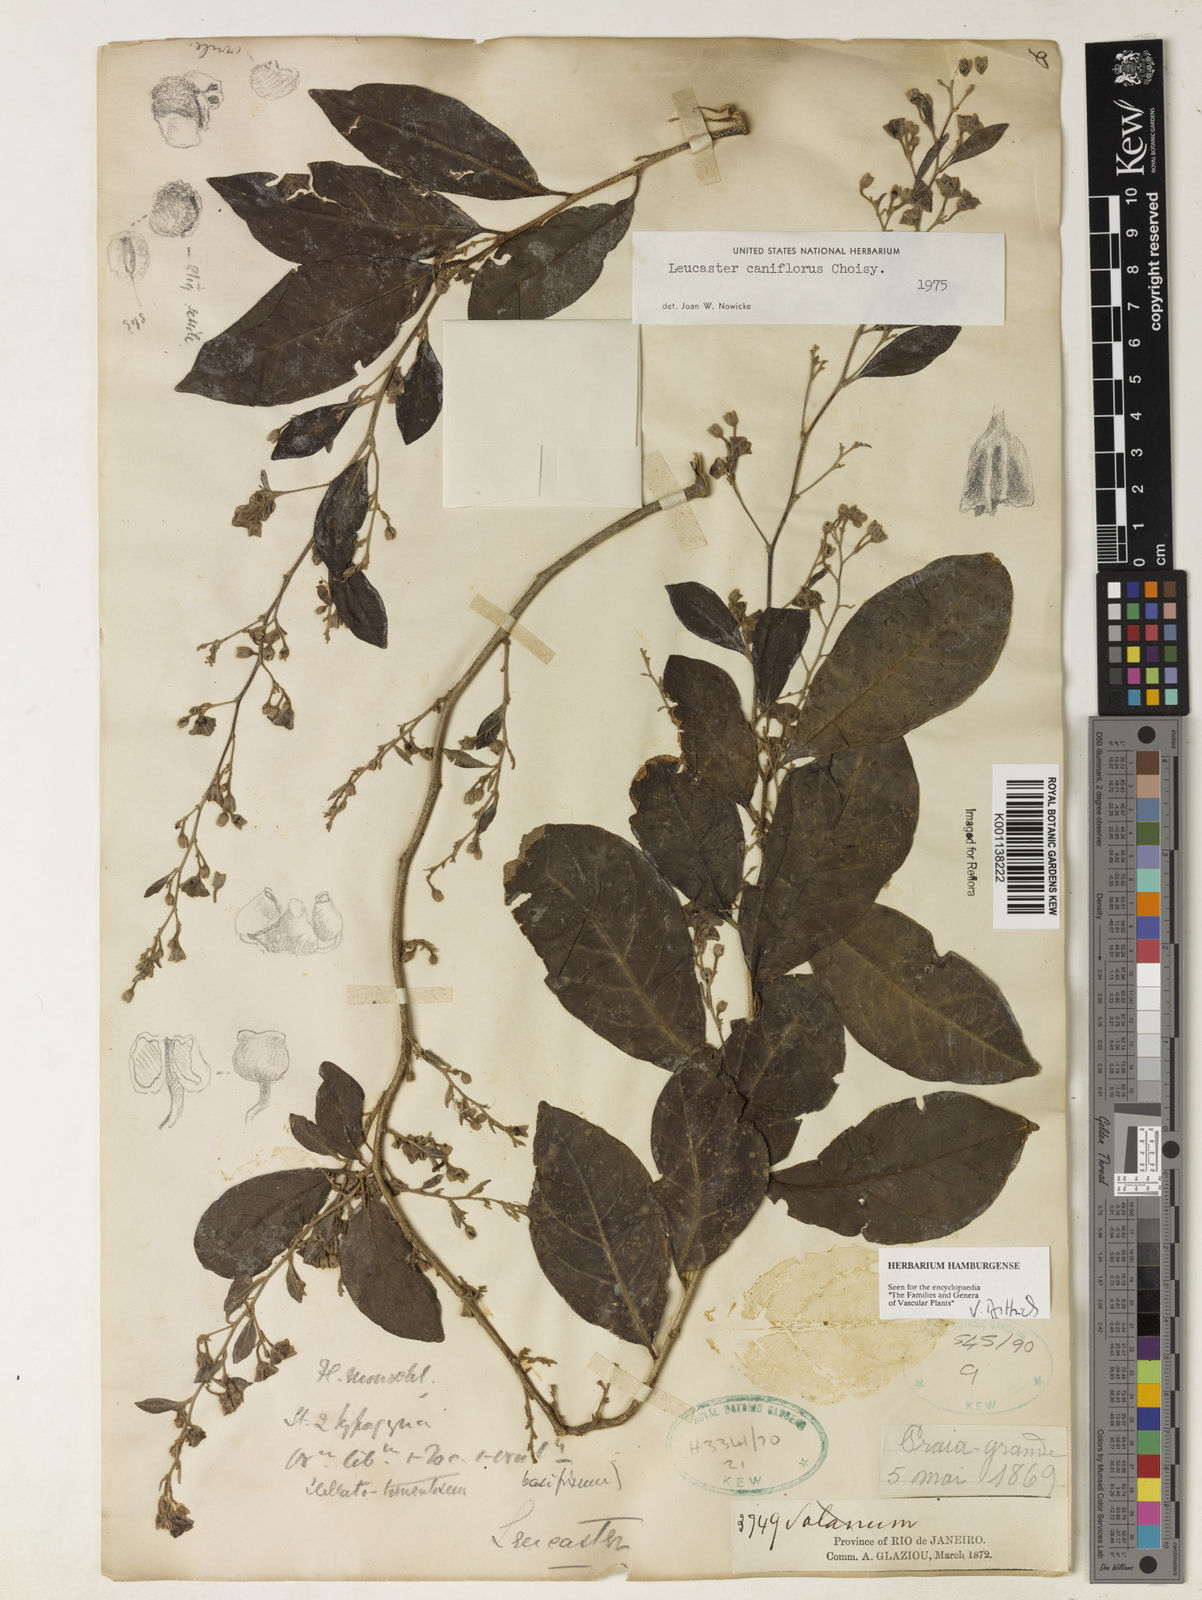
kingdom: Plantae
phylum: Tracheophyta
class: Magnoliopsida
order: Caryophyllales
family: Nyctaginaceae
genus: Leucaster
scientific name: Leucaster caniflorus
